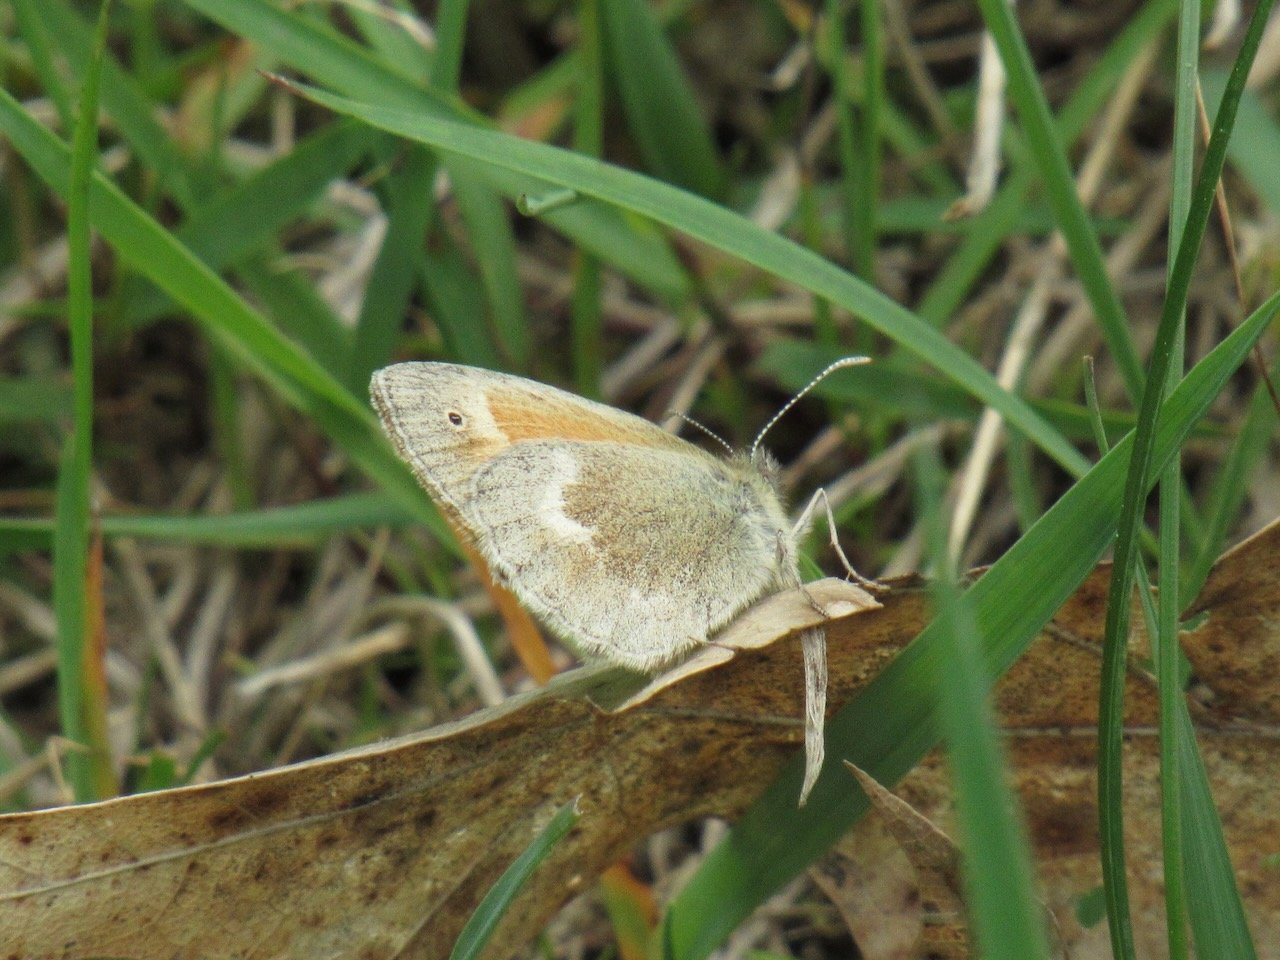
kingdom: Animalia
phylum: Arthropoda
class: Insecta
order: Lepidoptera
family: Nymphalidae
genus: Coenonympha
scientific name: Coenonympha tullia
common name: Large Heath
